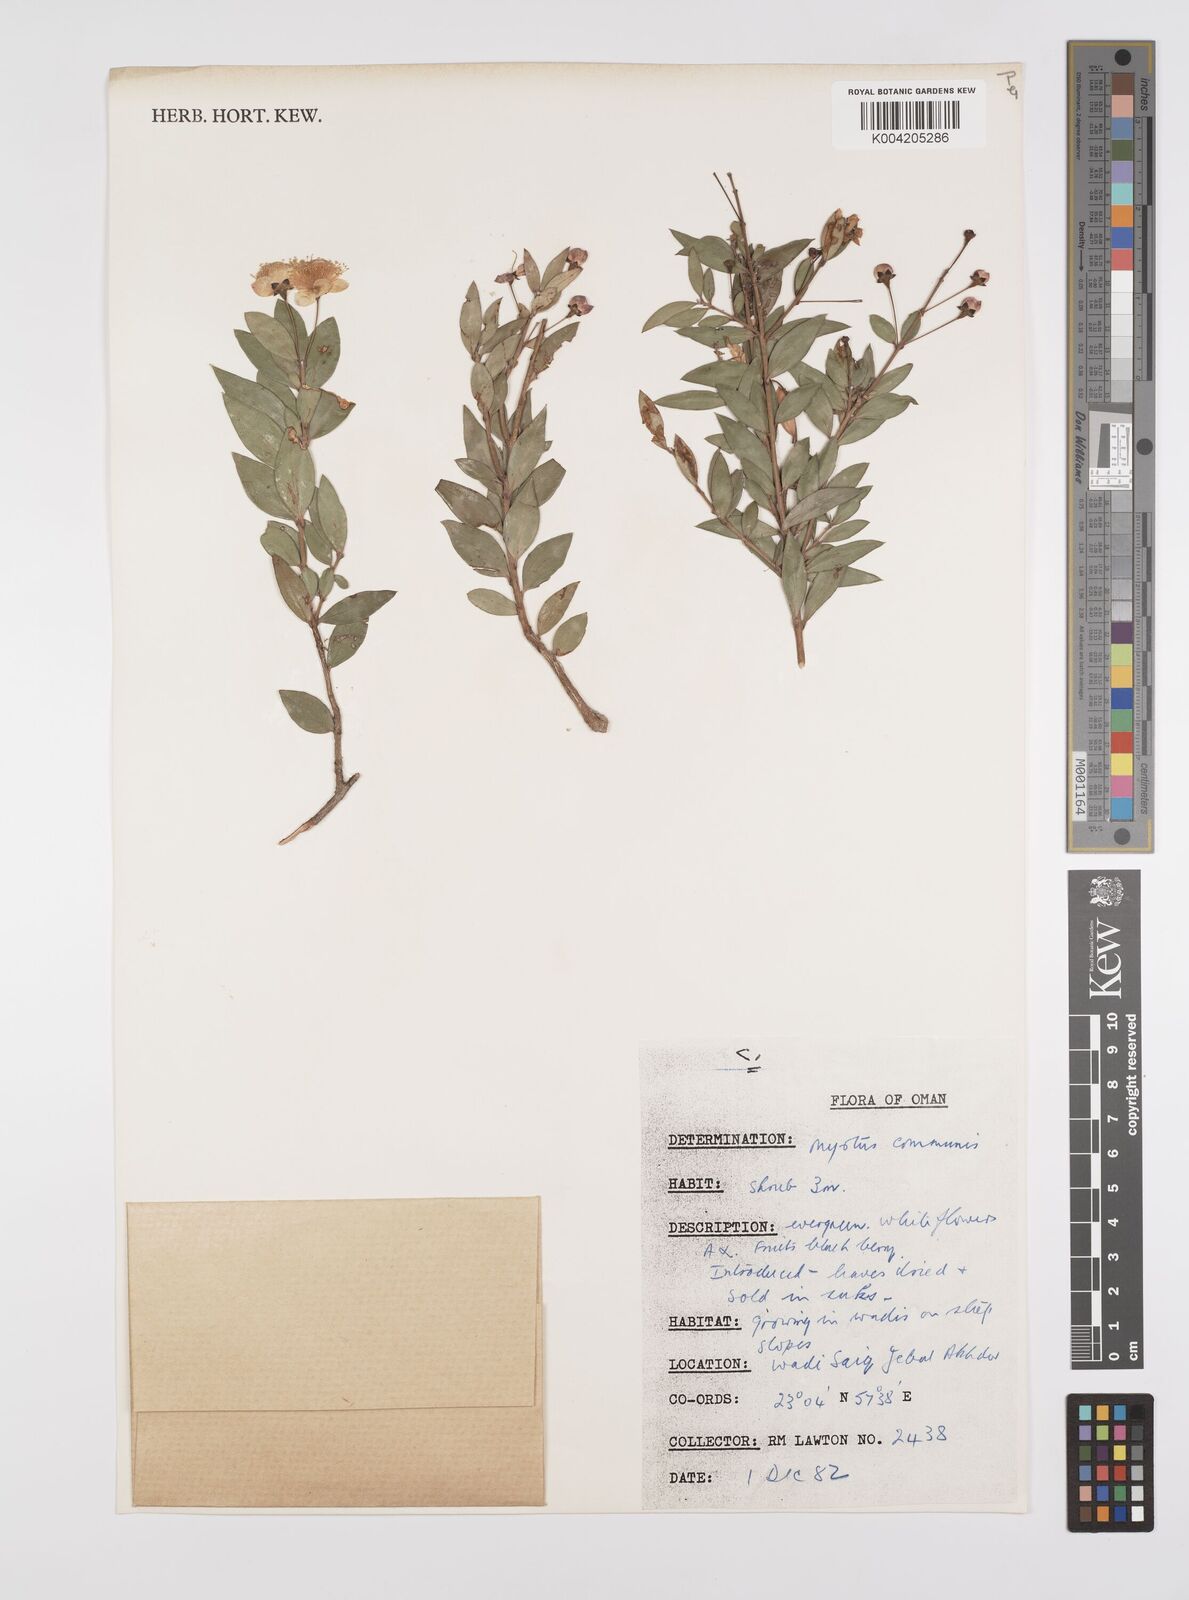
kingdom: Plantae
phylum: Tracheophyta
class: Magnoliopsida
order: Myrtales
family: Myrtaceae
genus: Myrtus
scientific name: Myrtus communis
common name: Myrtle
